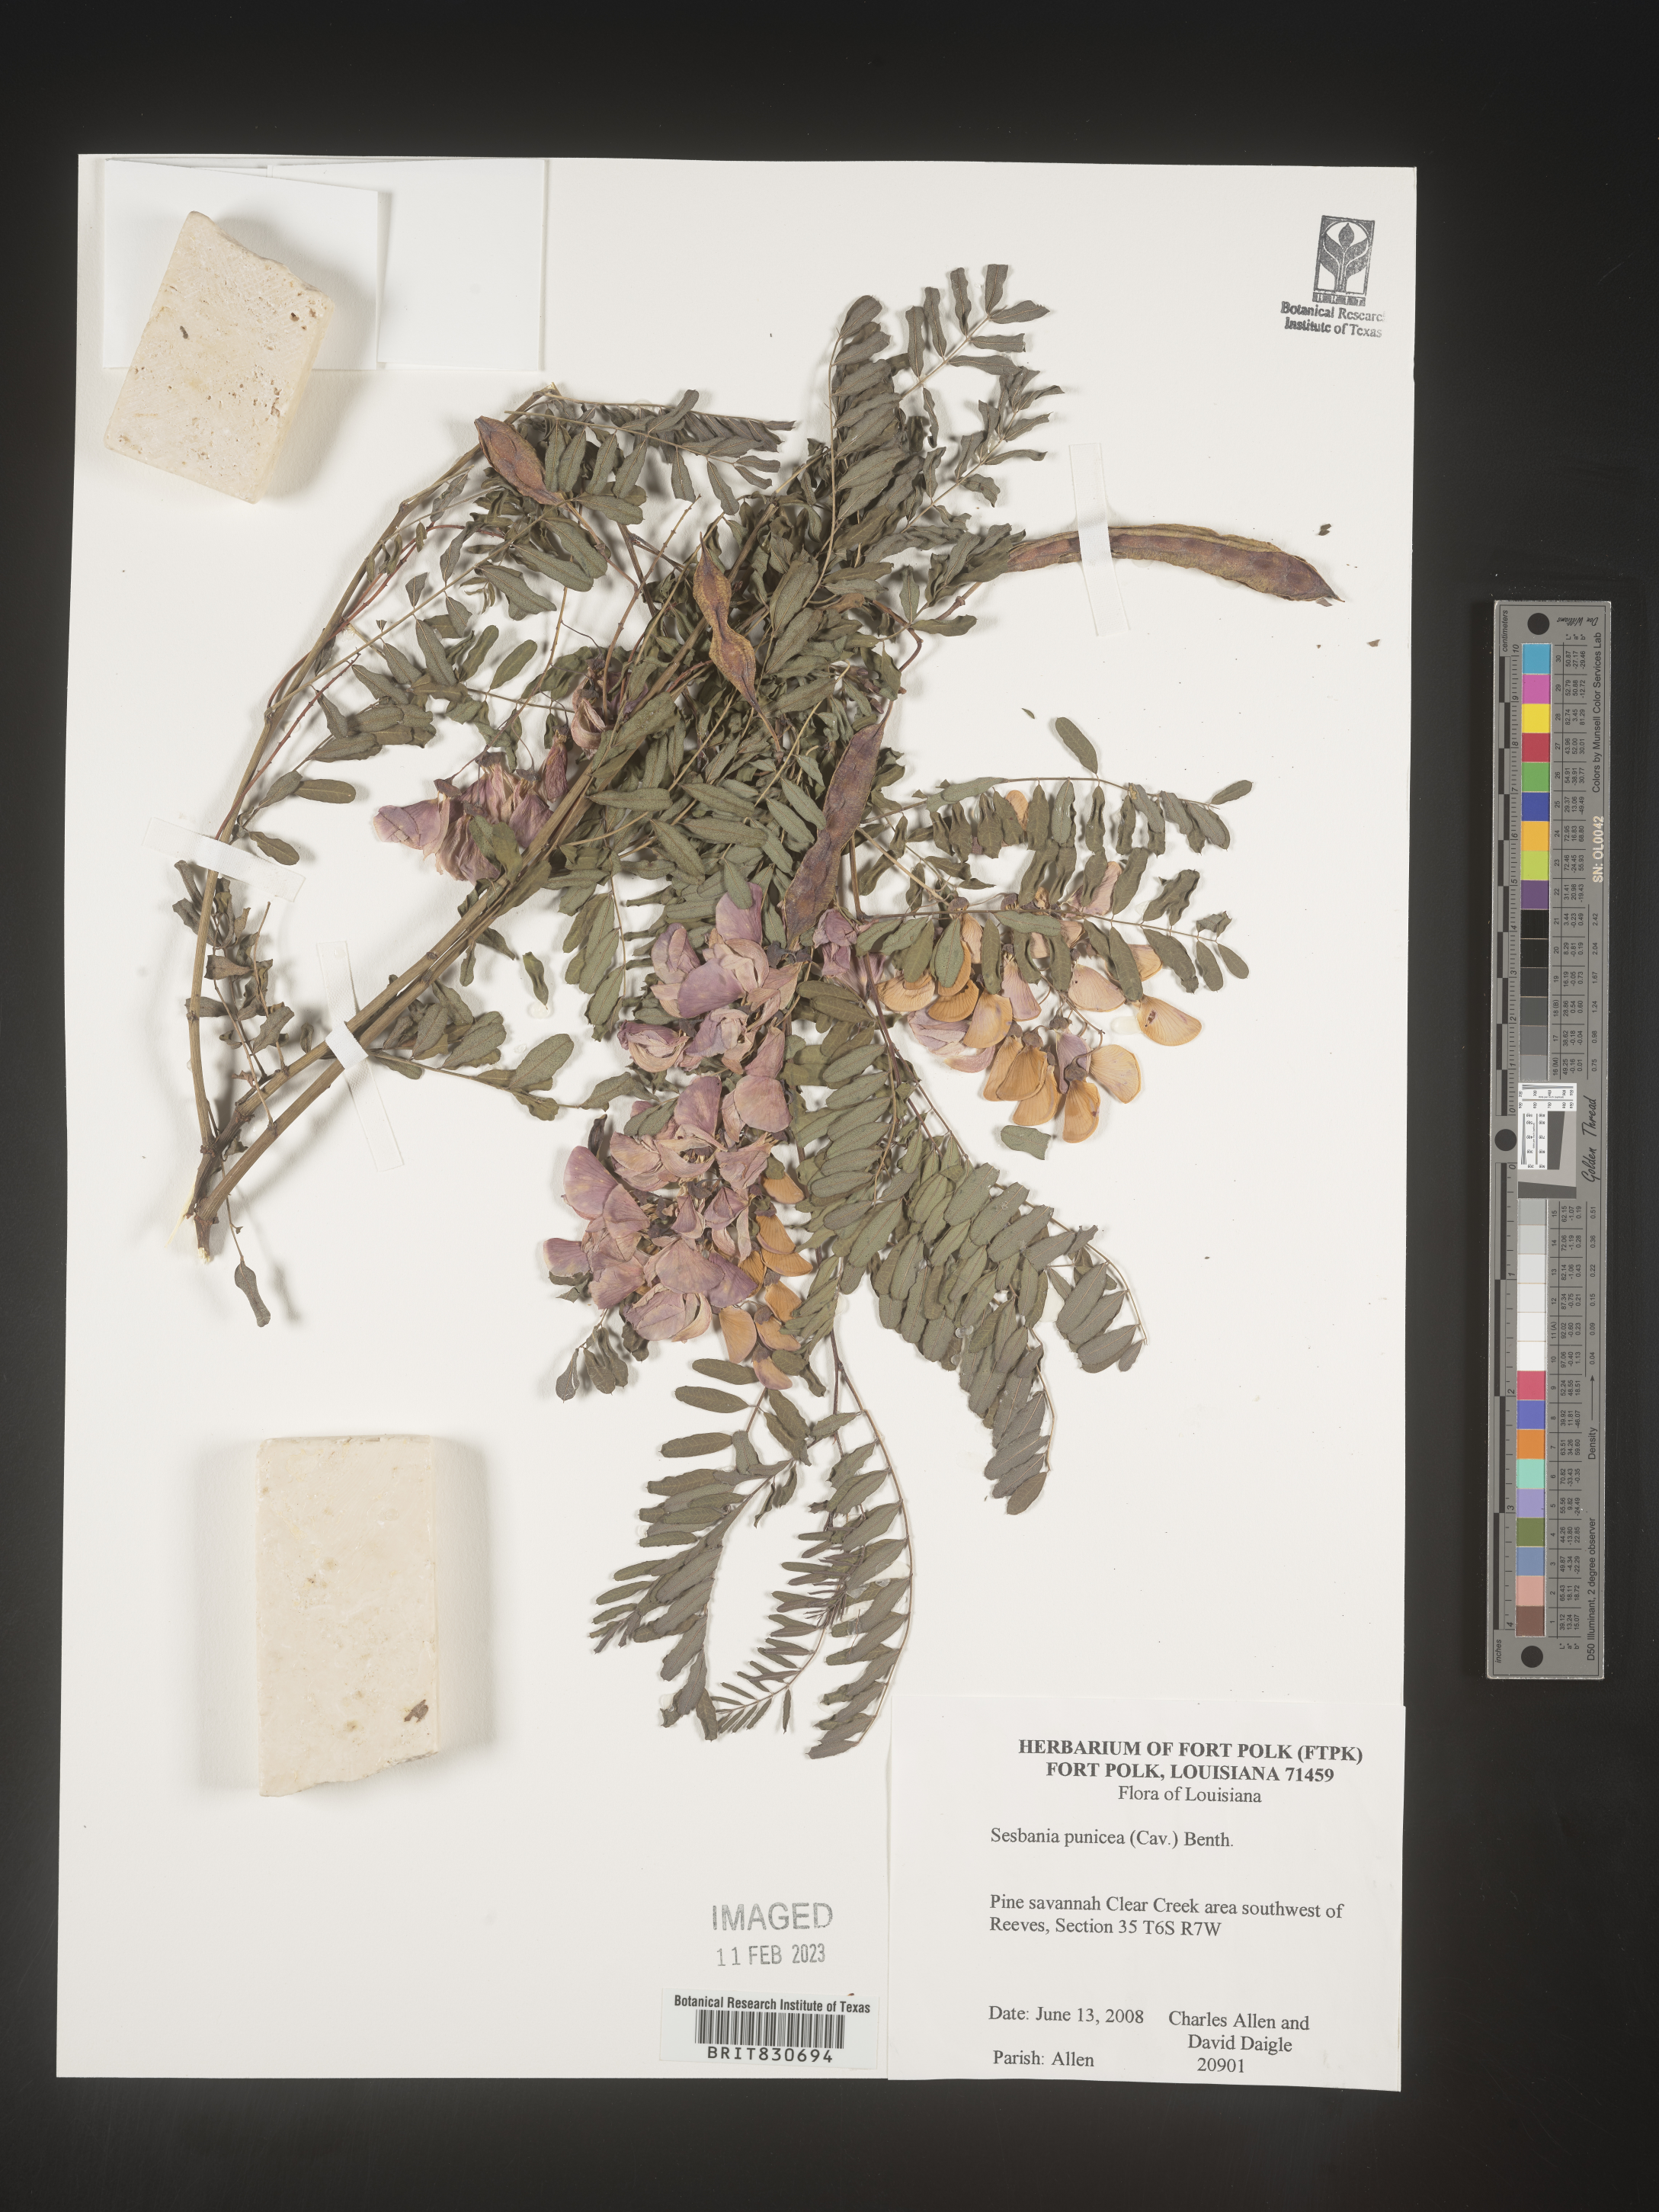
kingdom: Plantae
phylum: Tracheophyta
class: Magnoliopsida
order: Fabales
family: Fabaceae
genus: Sesbania
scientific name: Sesbania punicea
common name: Rattlebox
